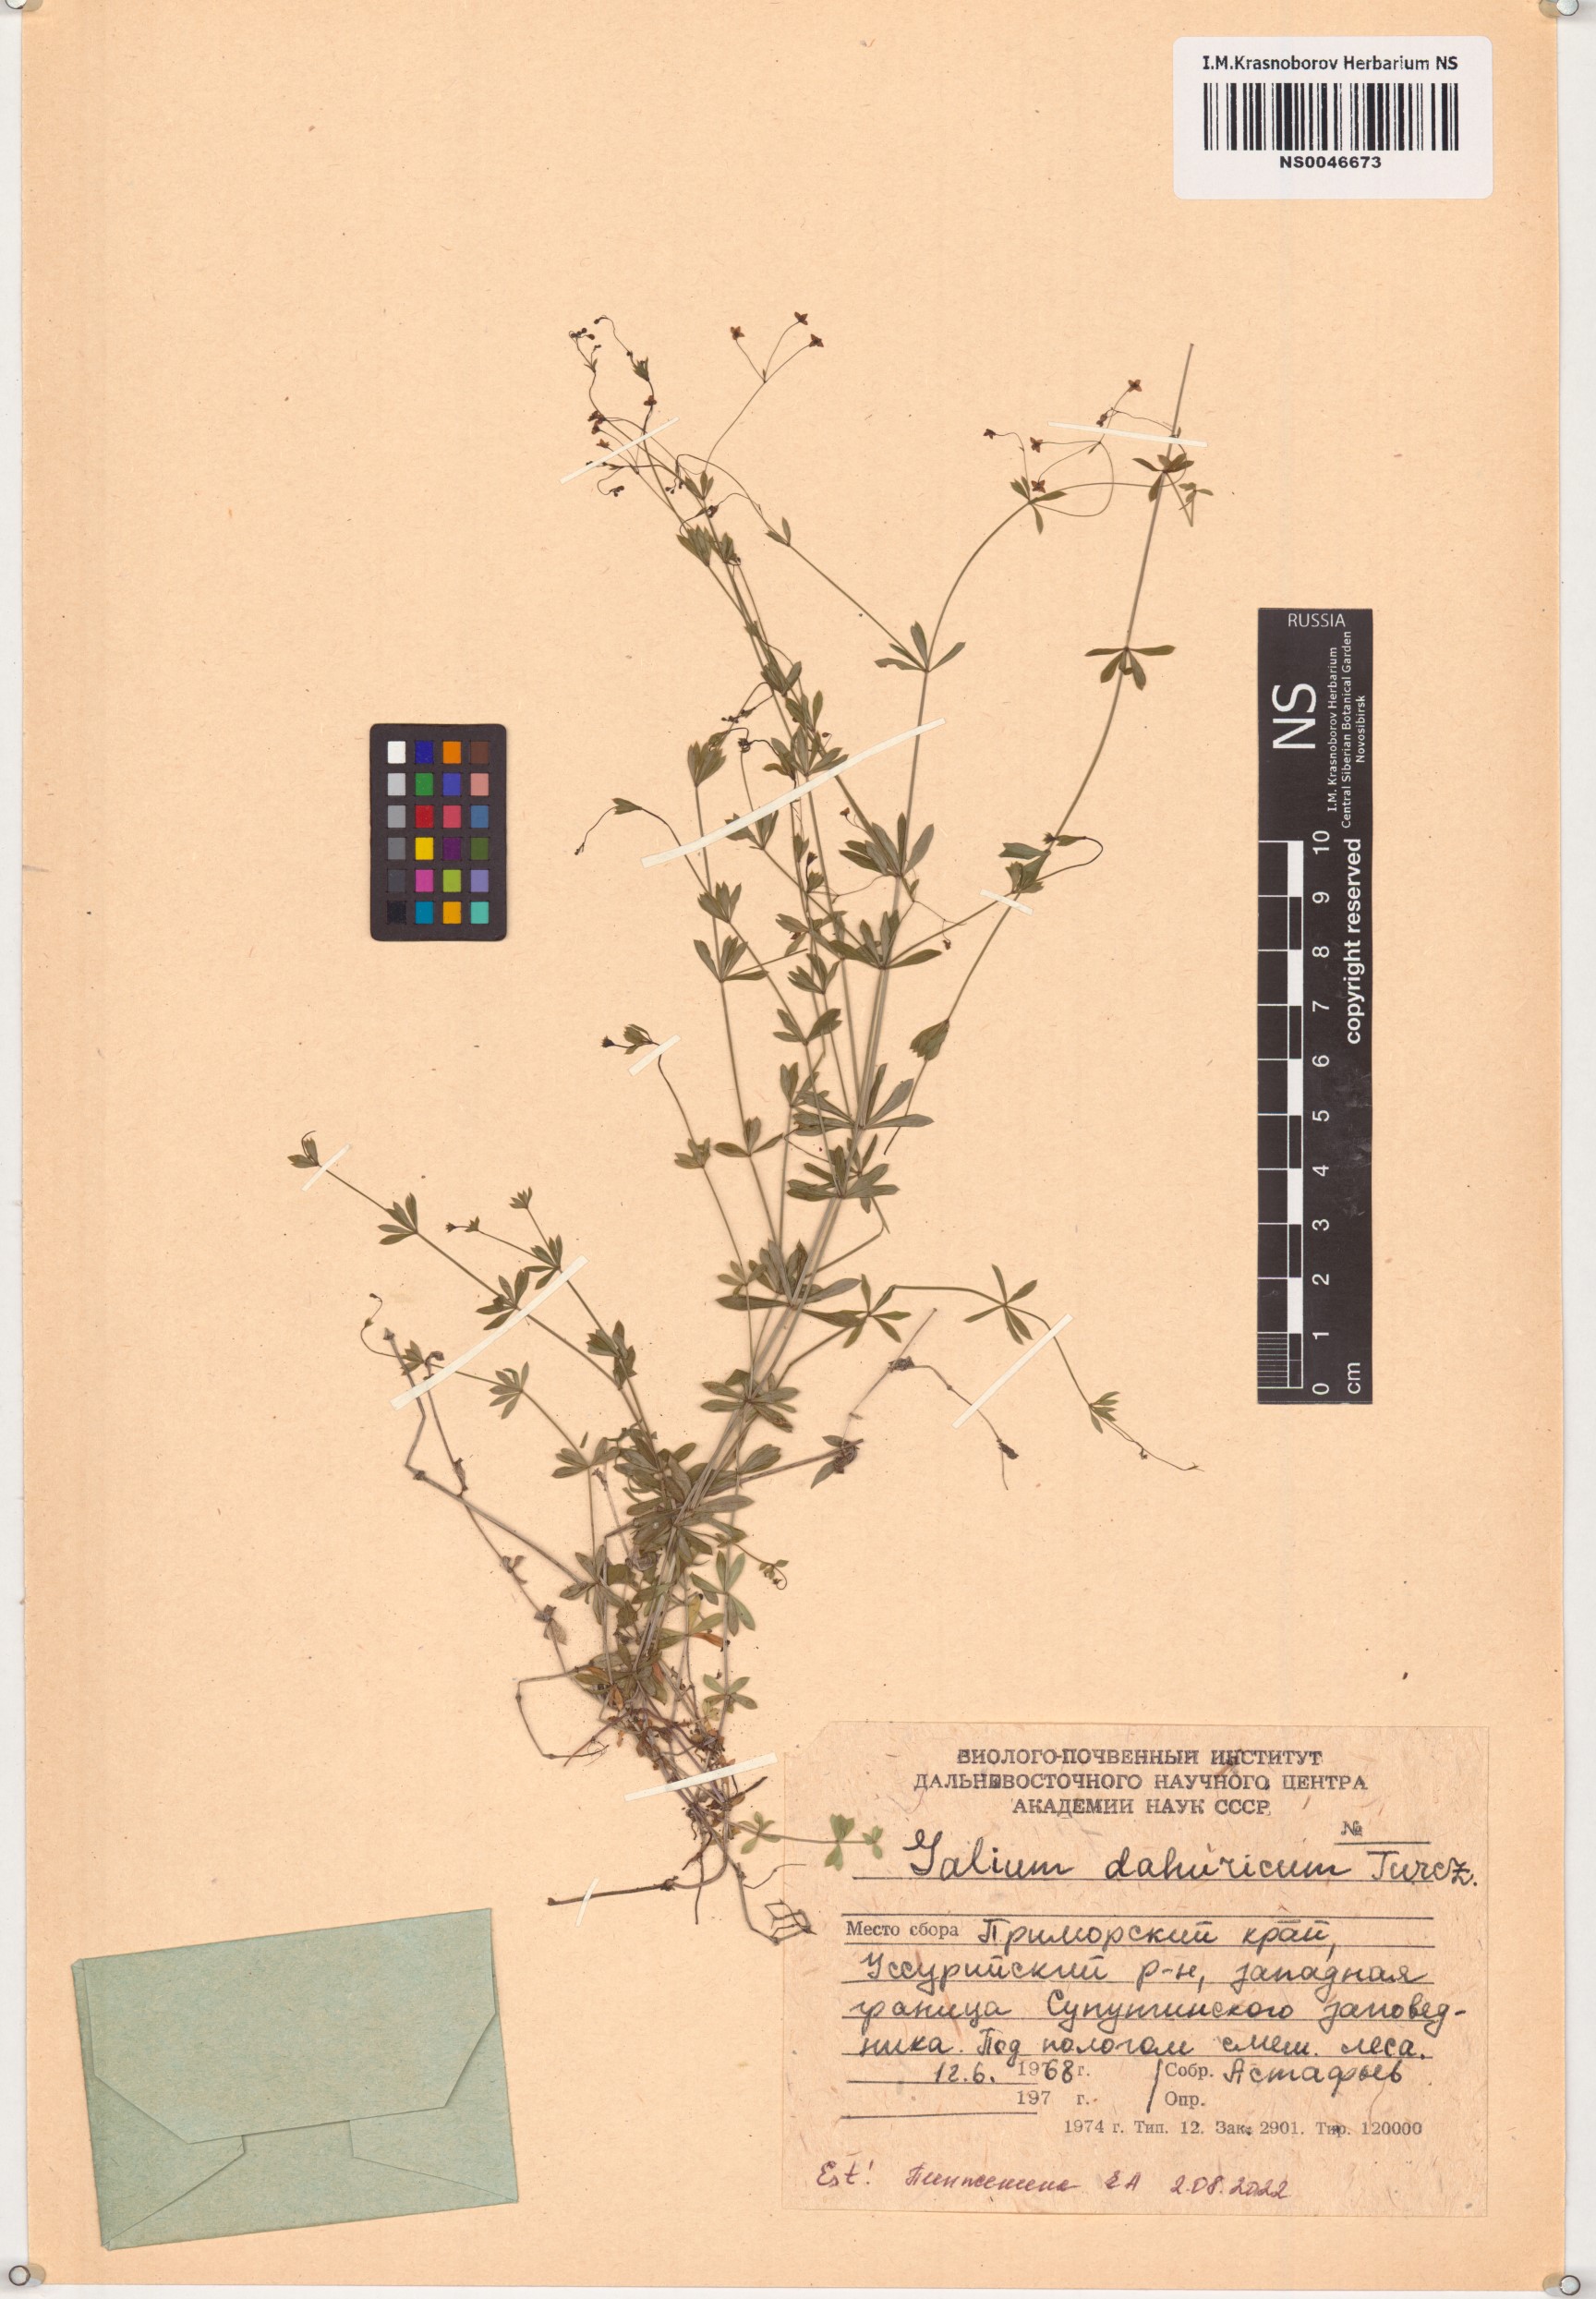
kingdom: Plantae
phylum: Tracheophyta
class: Magnoliopsida
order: Gentianales
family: Rubiaceae
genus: Galium
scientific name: Galium dahuricum
